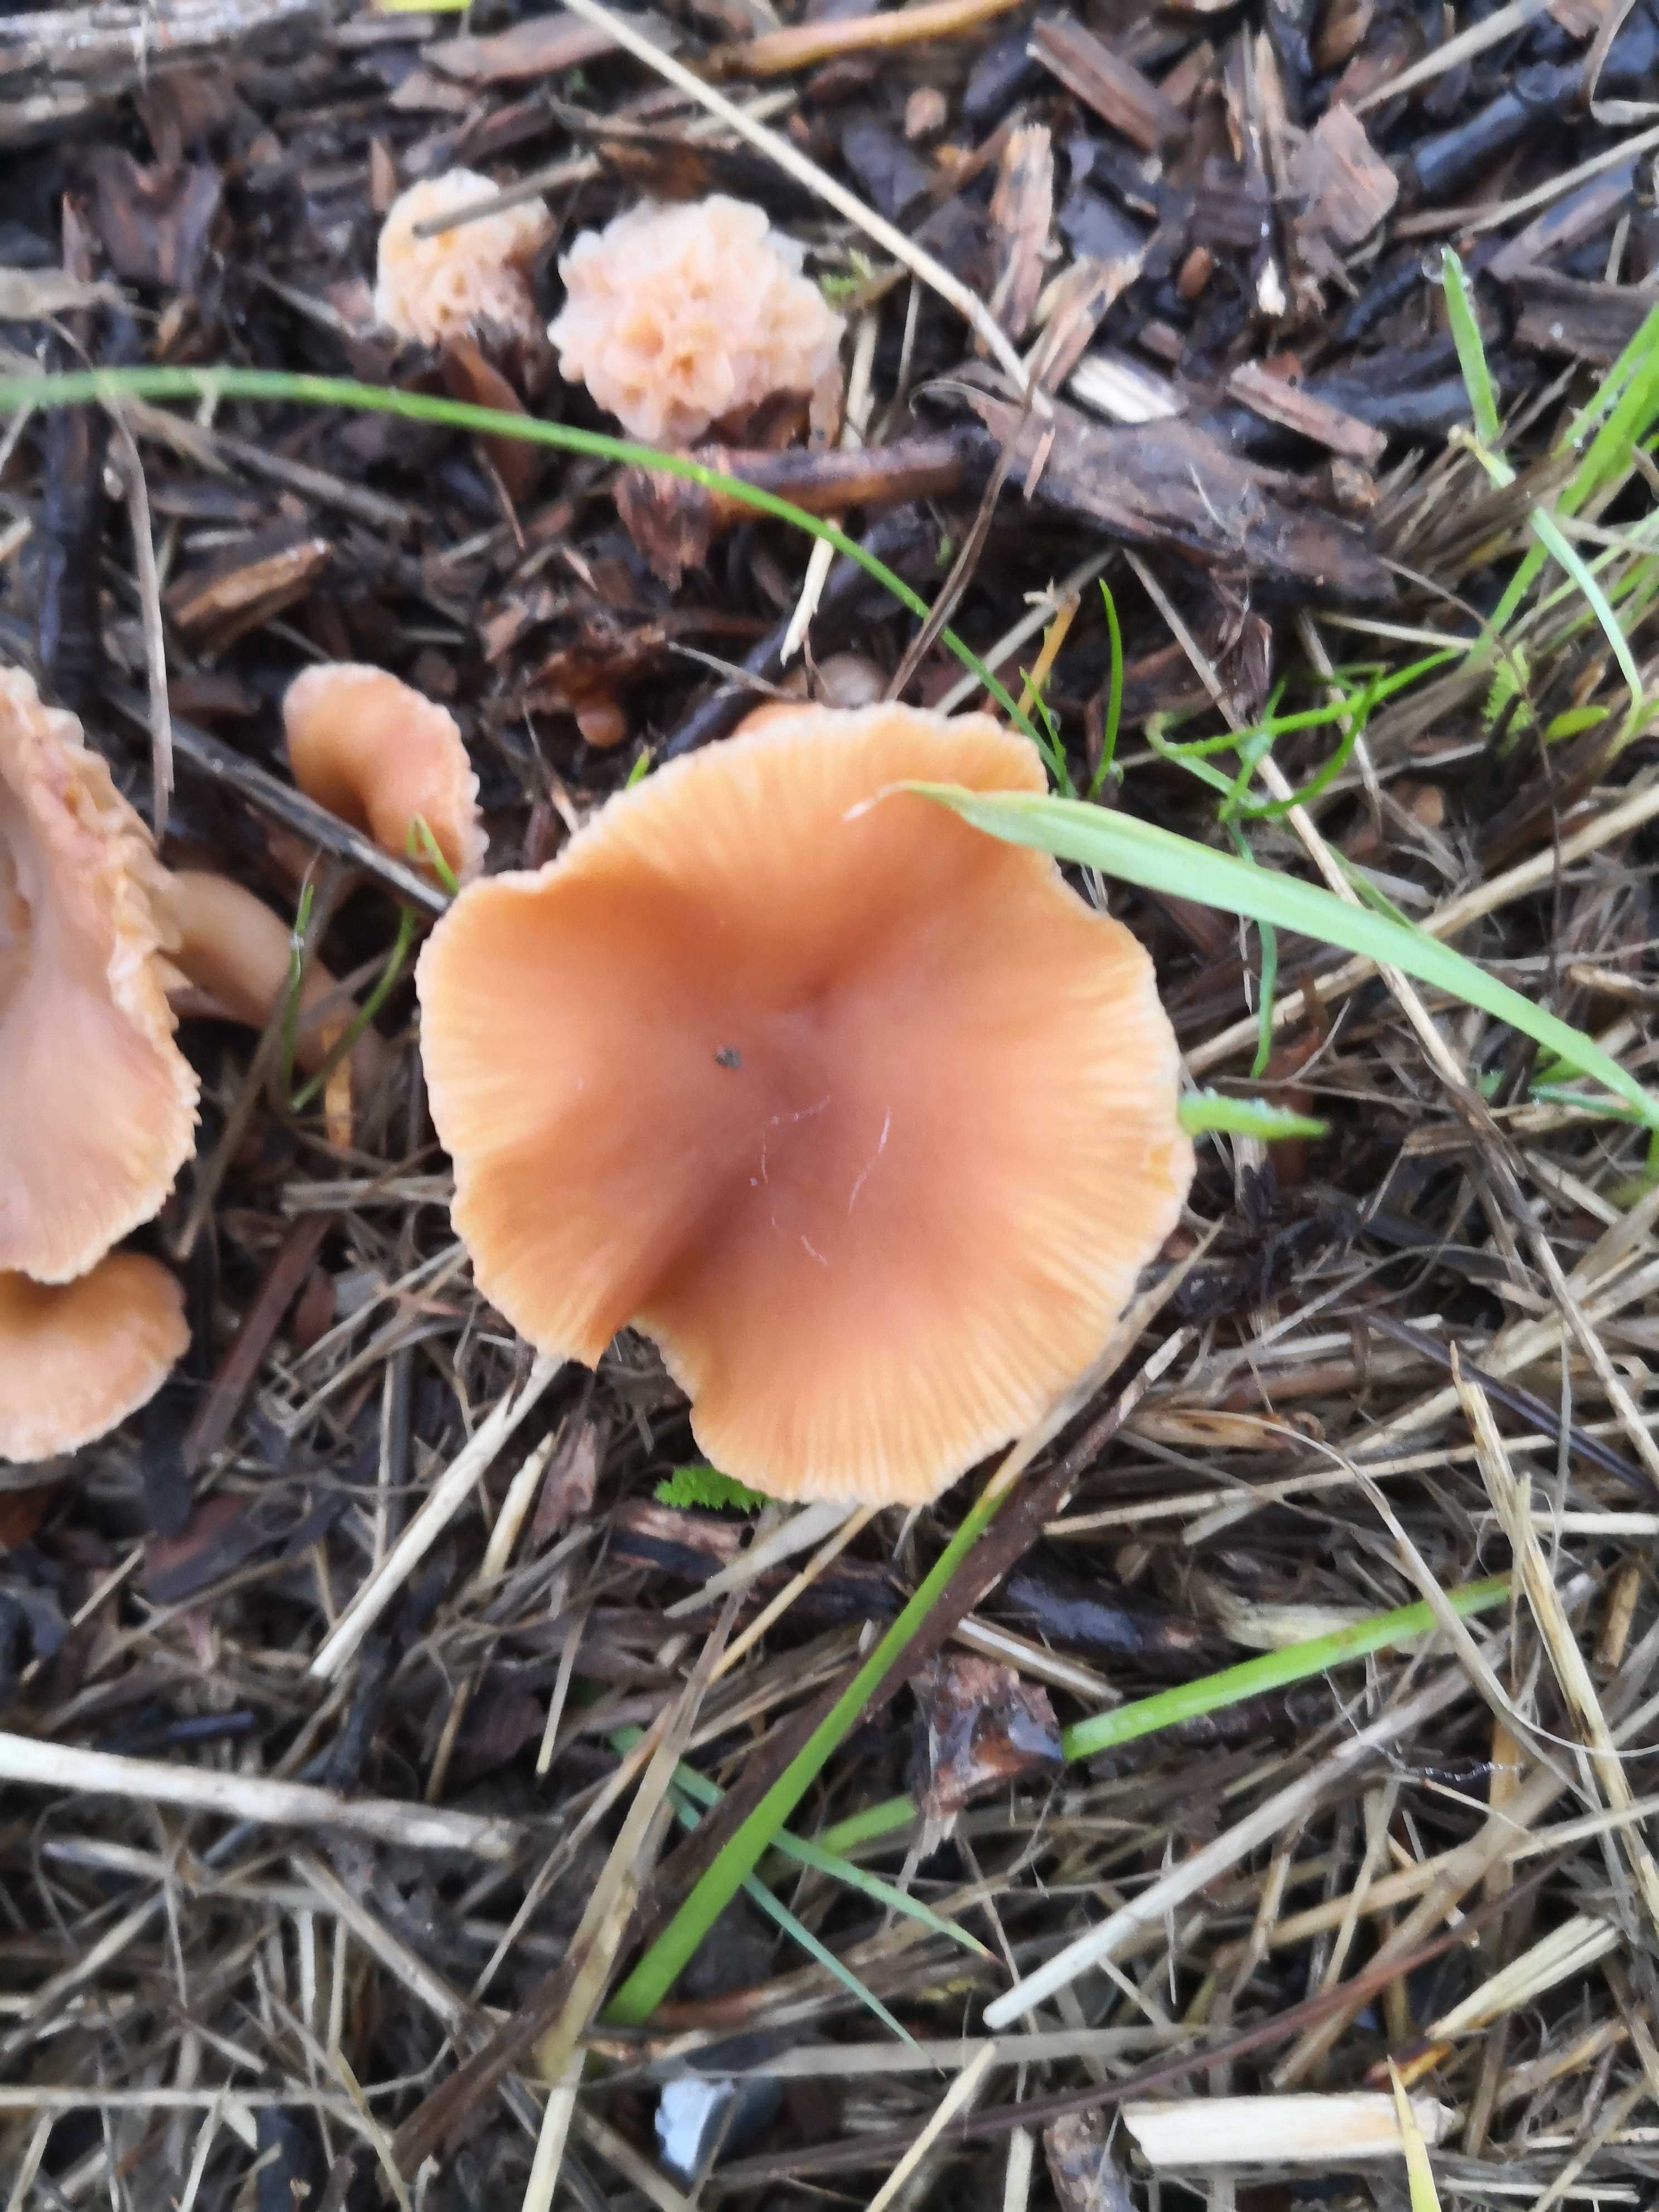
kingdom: Fungi
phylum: Basidiomycota
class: Agaricomycetes
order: Agaricales
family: Tubariaceae
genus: Tubaria
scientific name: Tubaria furfuracea
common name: kliddet fnughat
